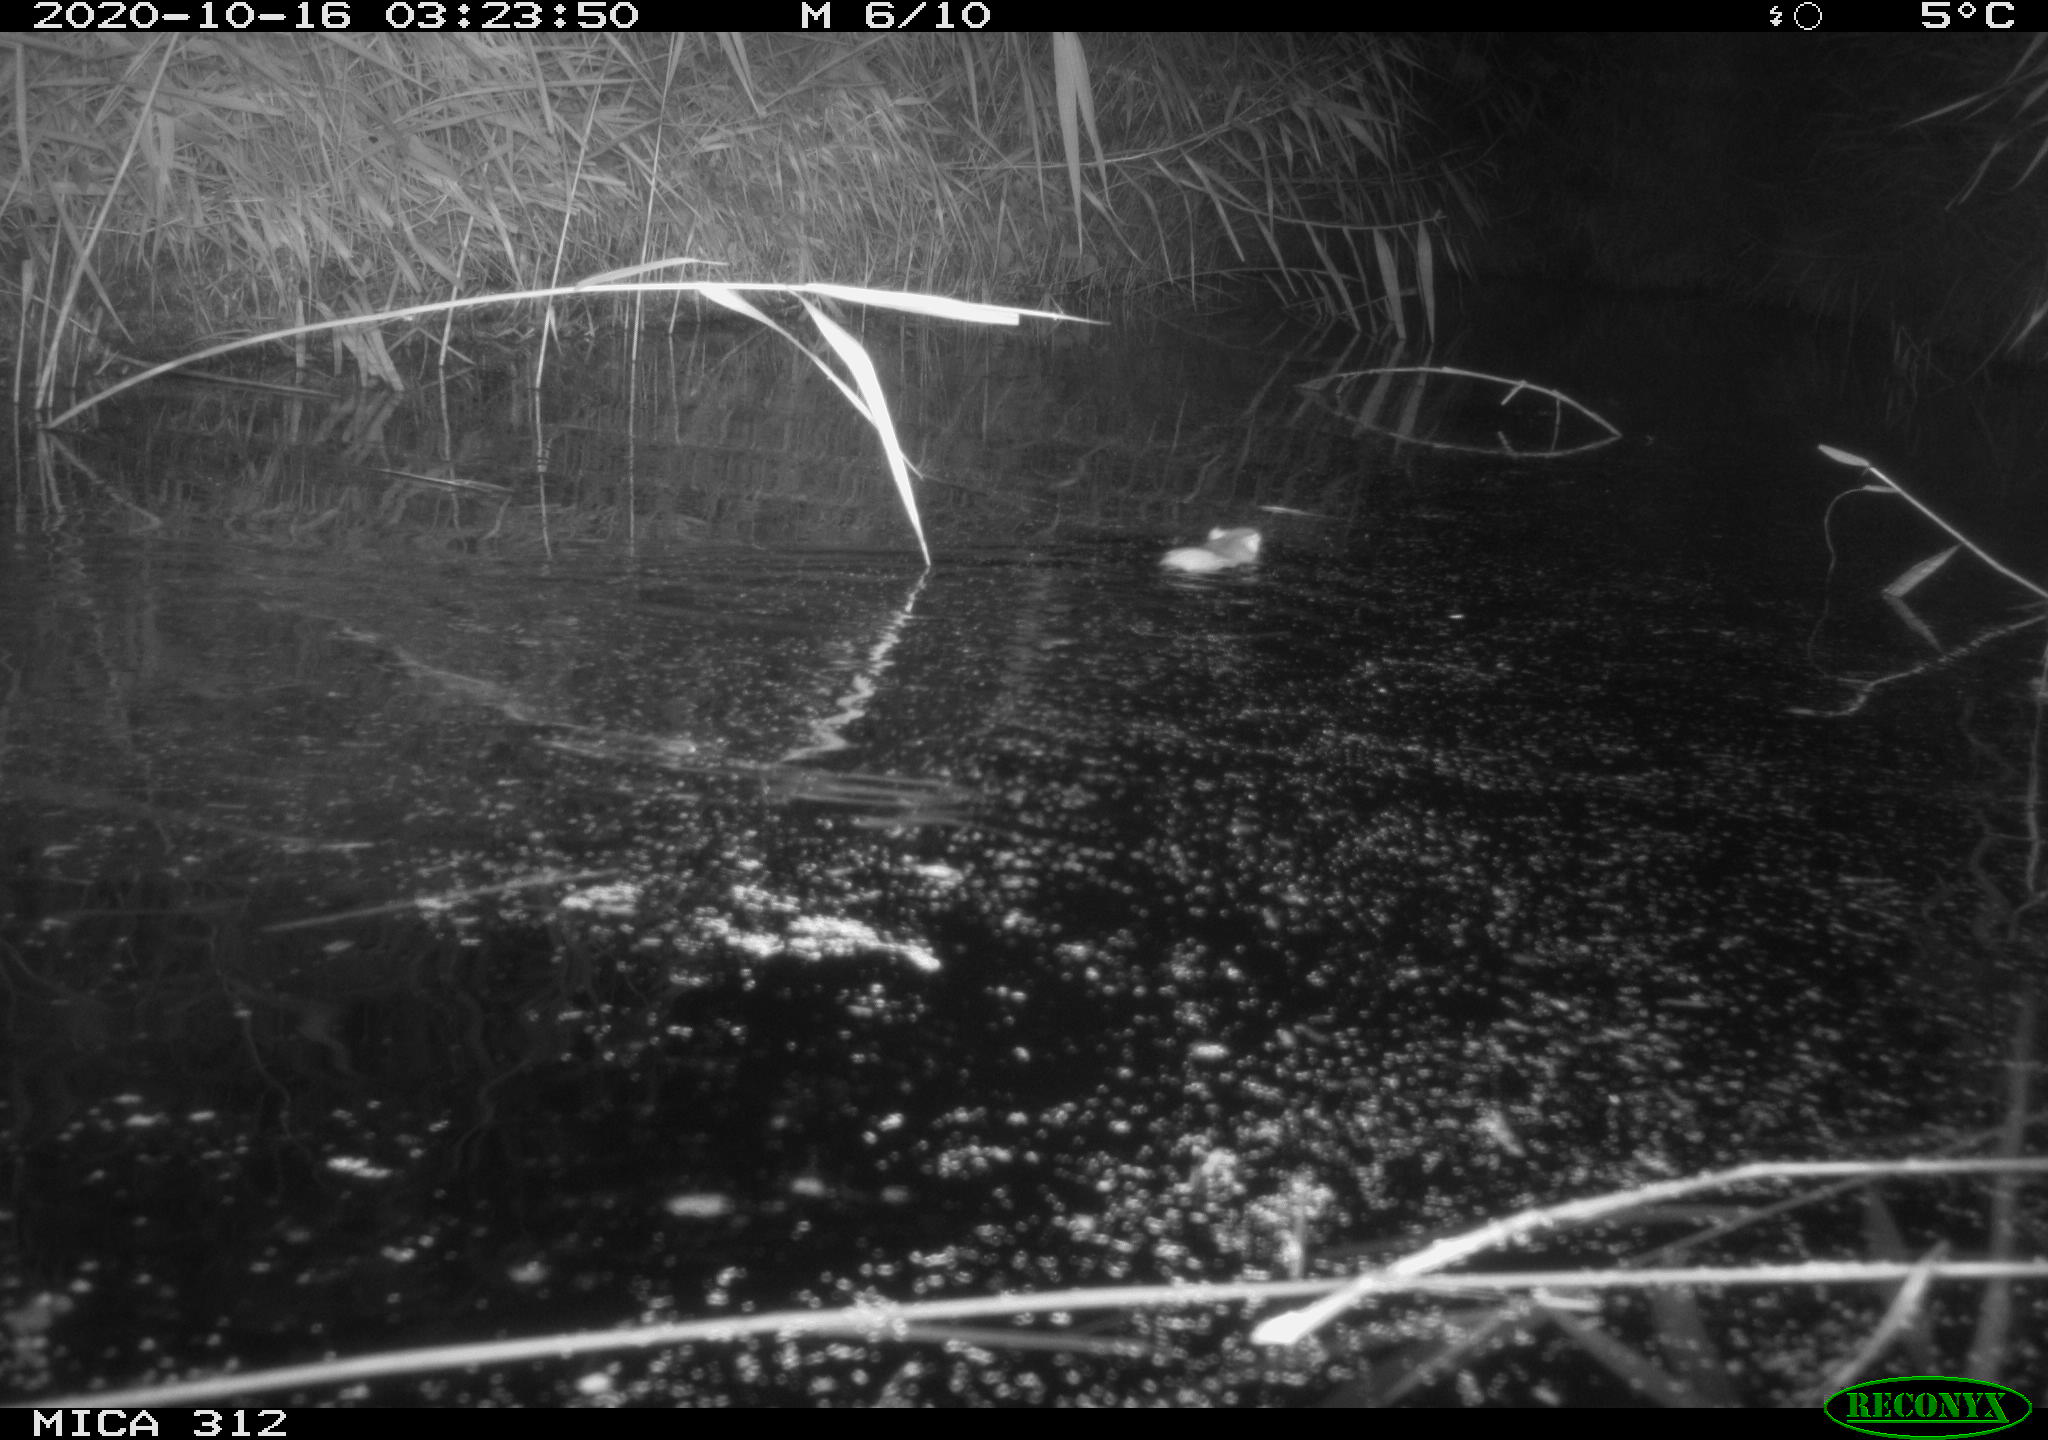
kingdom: Animalia
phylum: Chordata
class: Mammalia
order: Rodentia
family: Muridae
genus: Rattus
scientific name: Rattus norvegicus
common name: Brown rat
